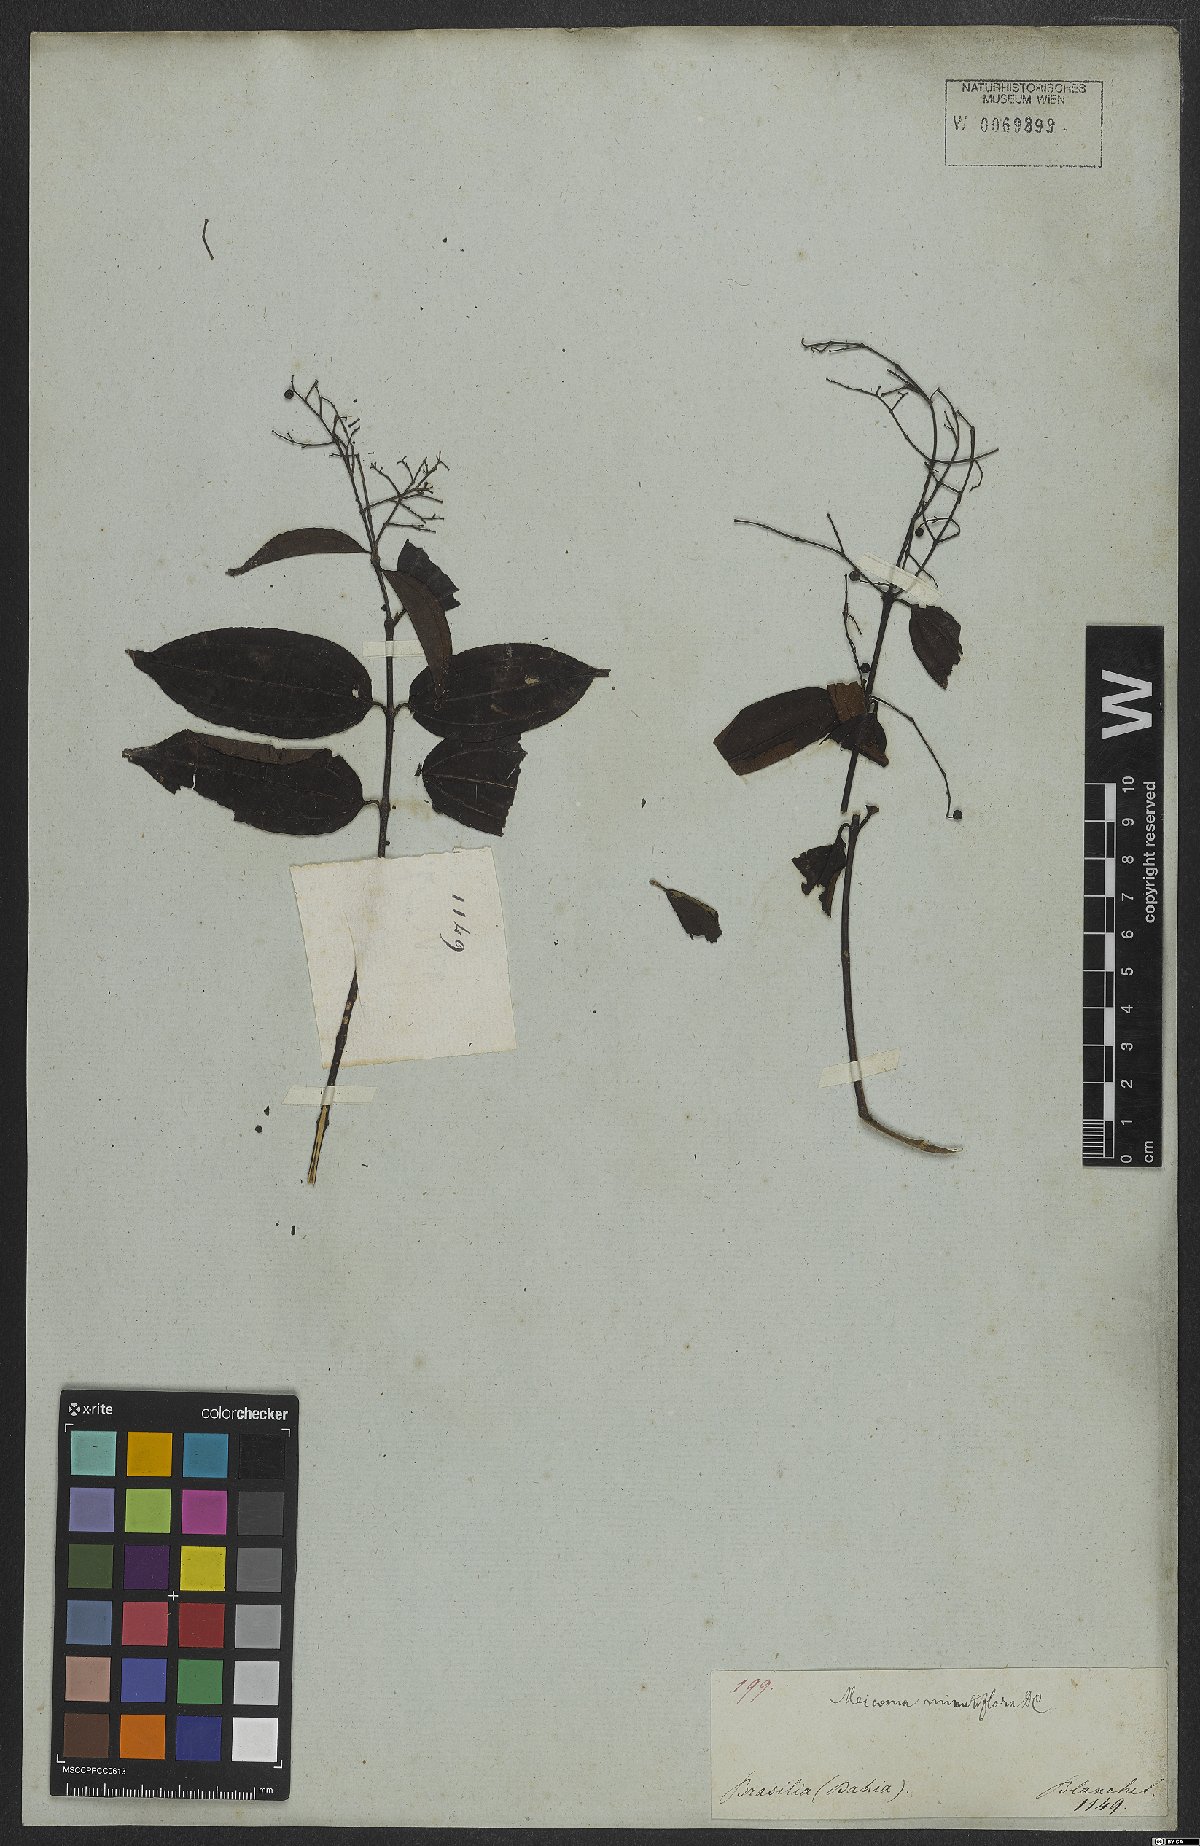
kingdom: Plantae
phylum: Tracheophyta
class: Magnoliopsida
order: Myrtales
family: Melastomataceae
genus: Miconia
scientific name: Miconia minutiflora
